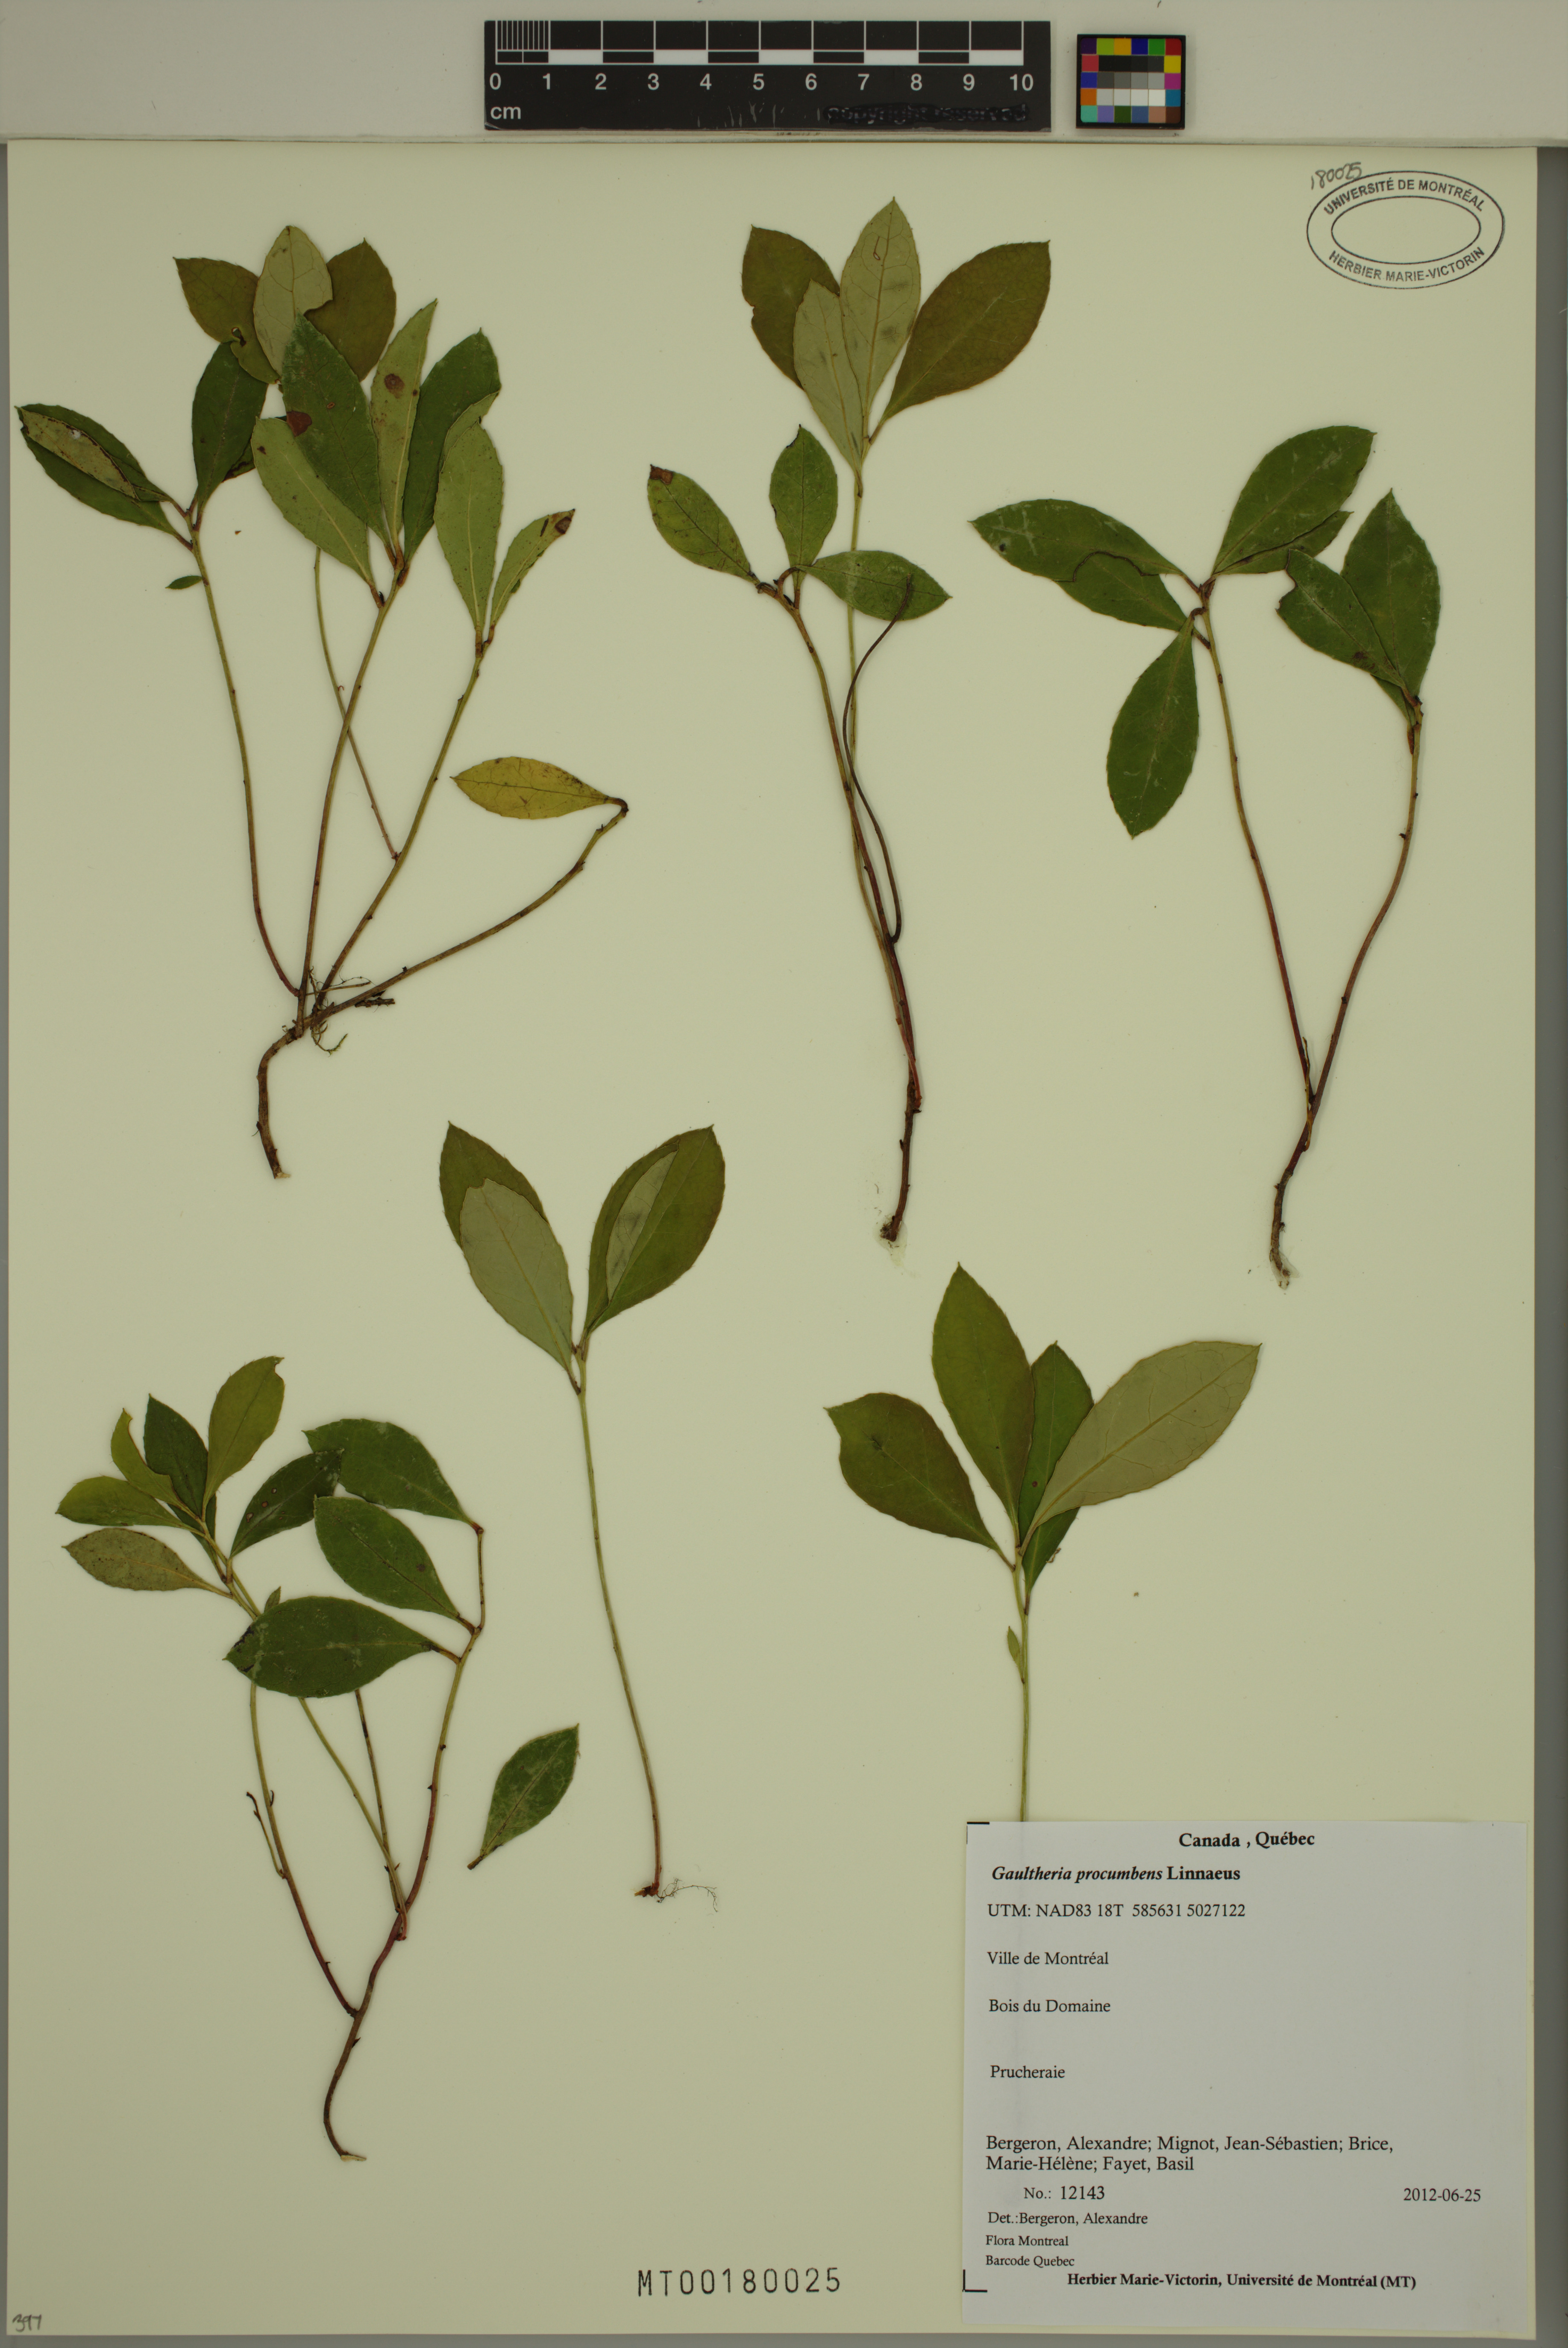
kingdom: Plantae
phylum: Tracheophyta
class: Magnoliopsida
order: Ericales
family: Ericaceae
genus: Gaultheria
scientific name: Gaultheria procumbens
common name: Checkerberry
